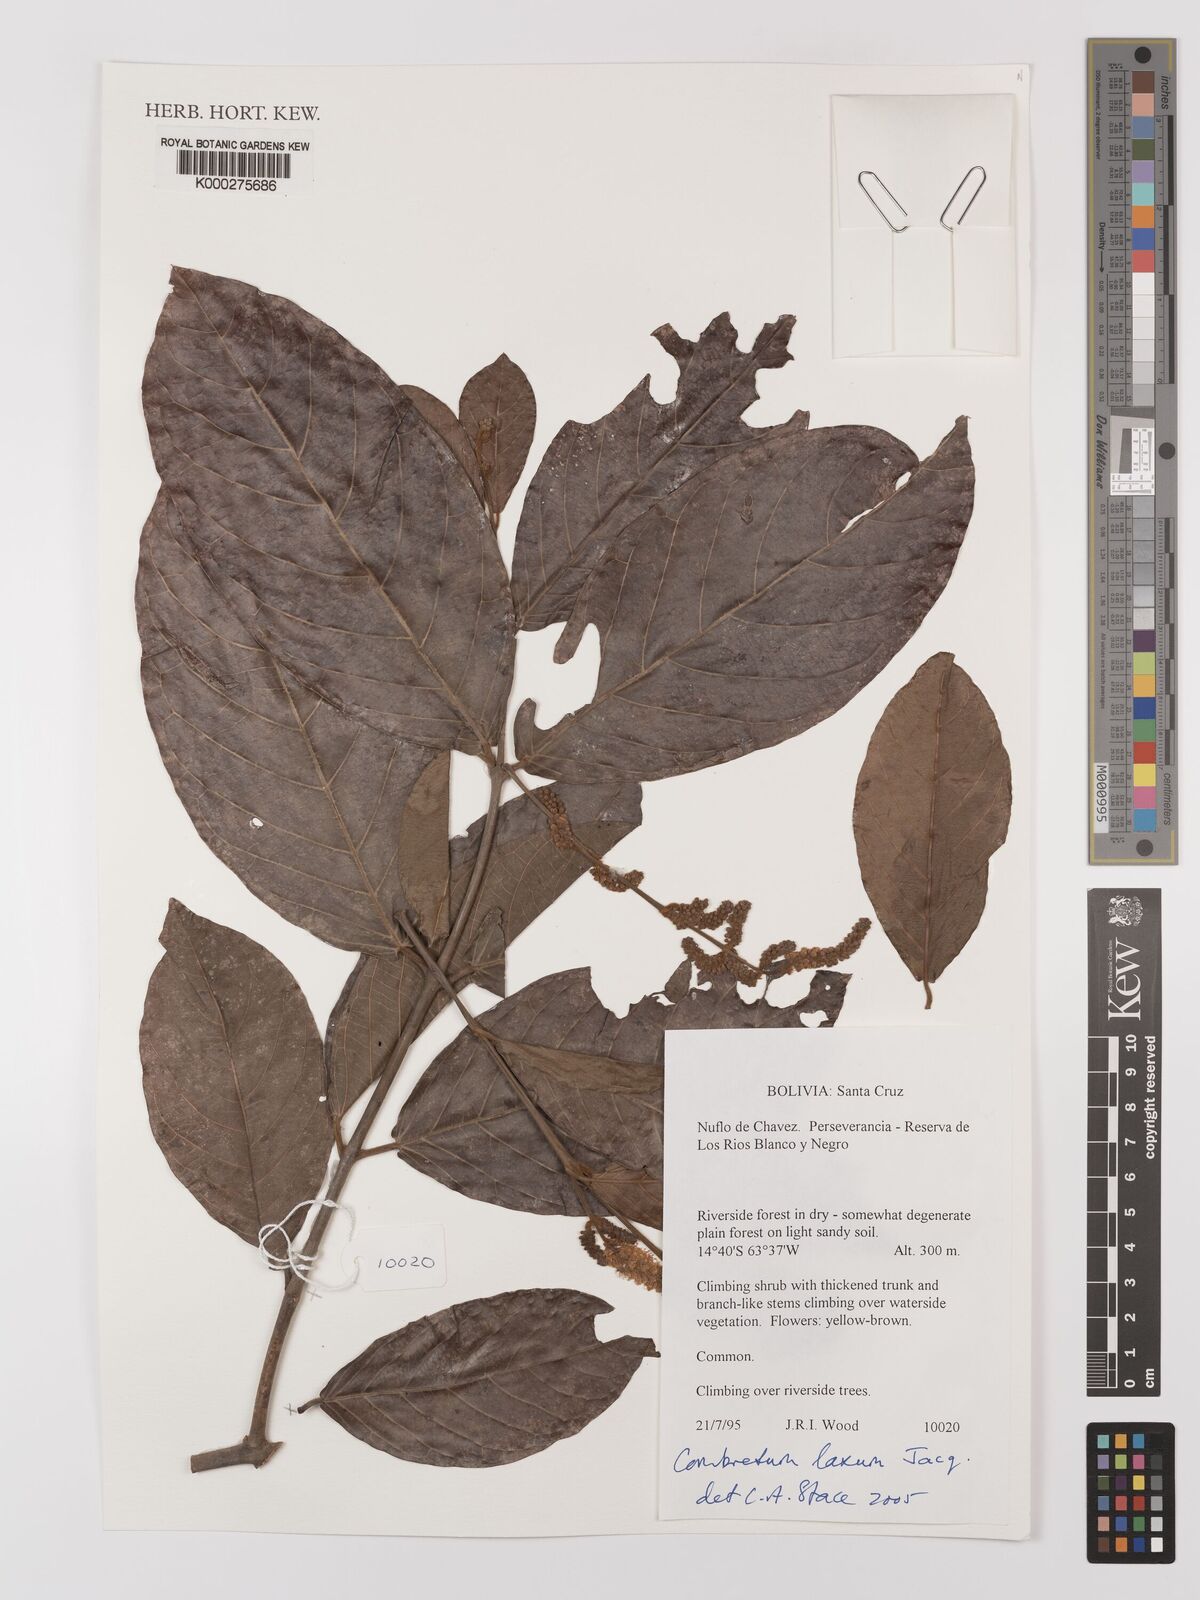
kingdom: Plantae
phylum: Tracheophyta
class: Magnoliopsida
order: Myrtales
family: Combretaceae
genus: Combretum
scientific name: Combretum laxum
